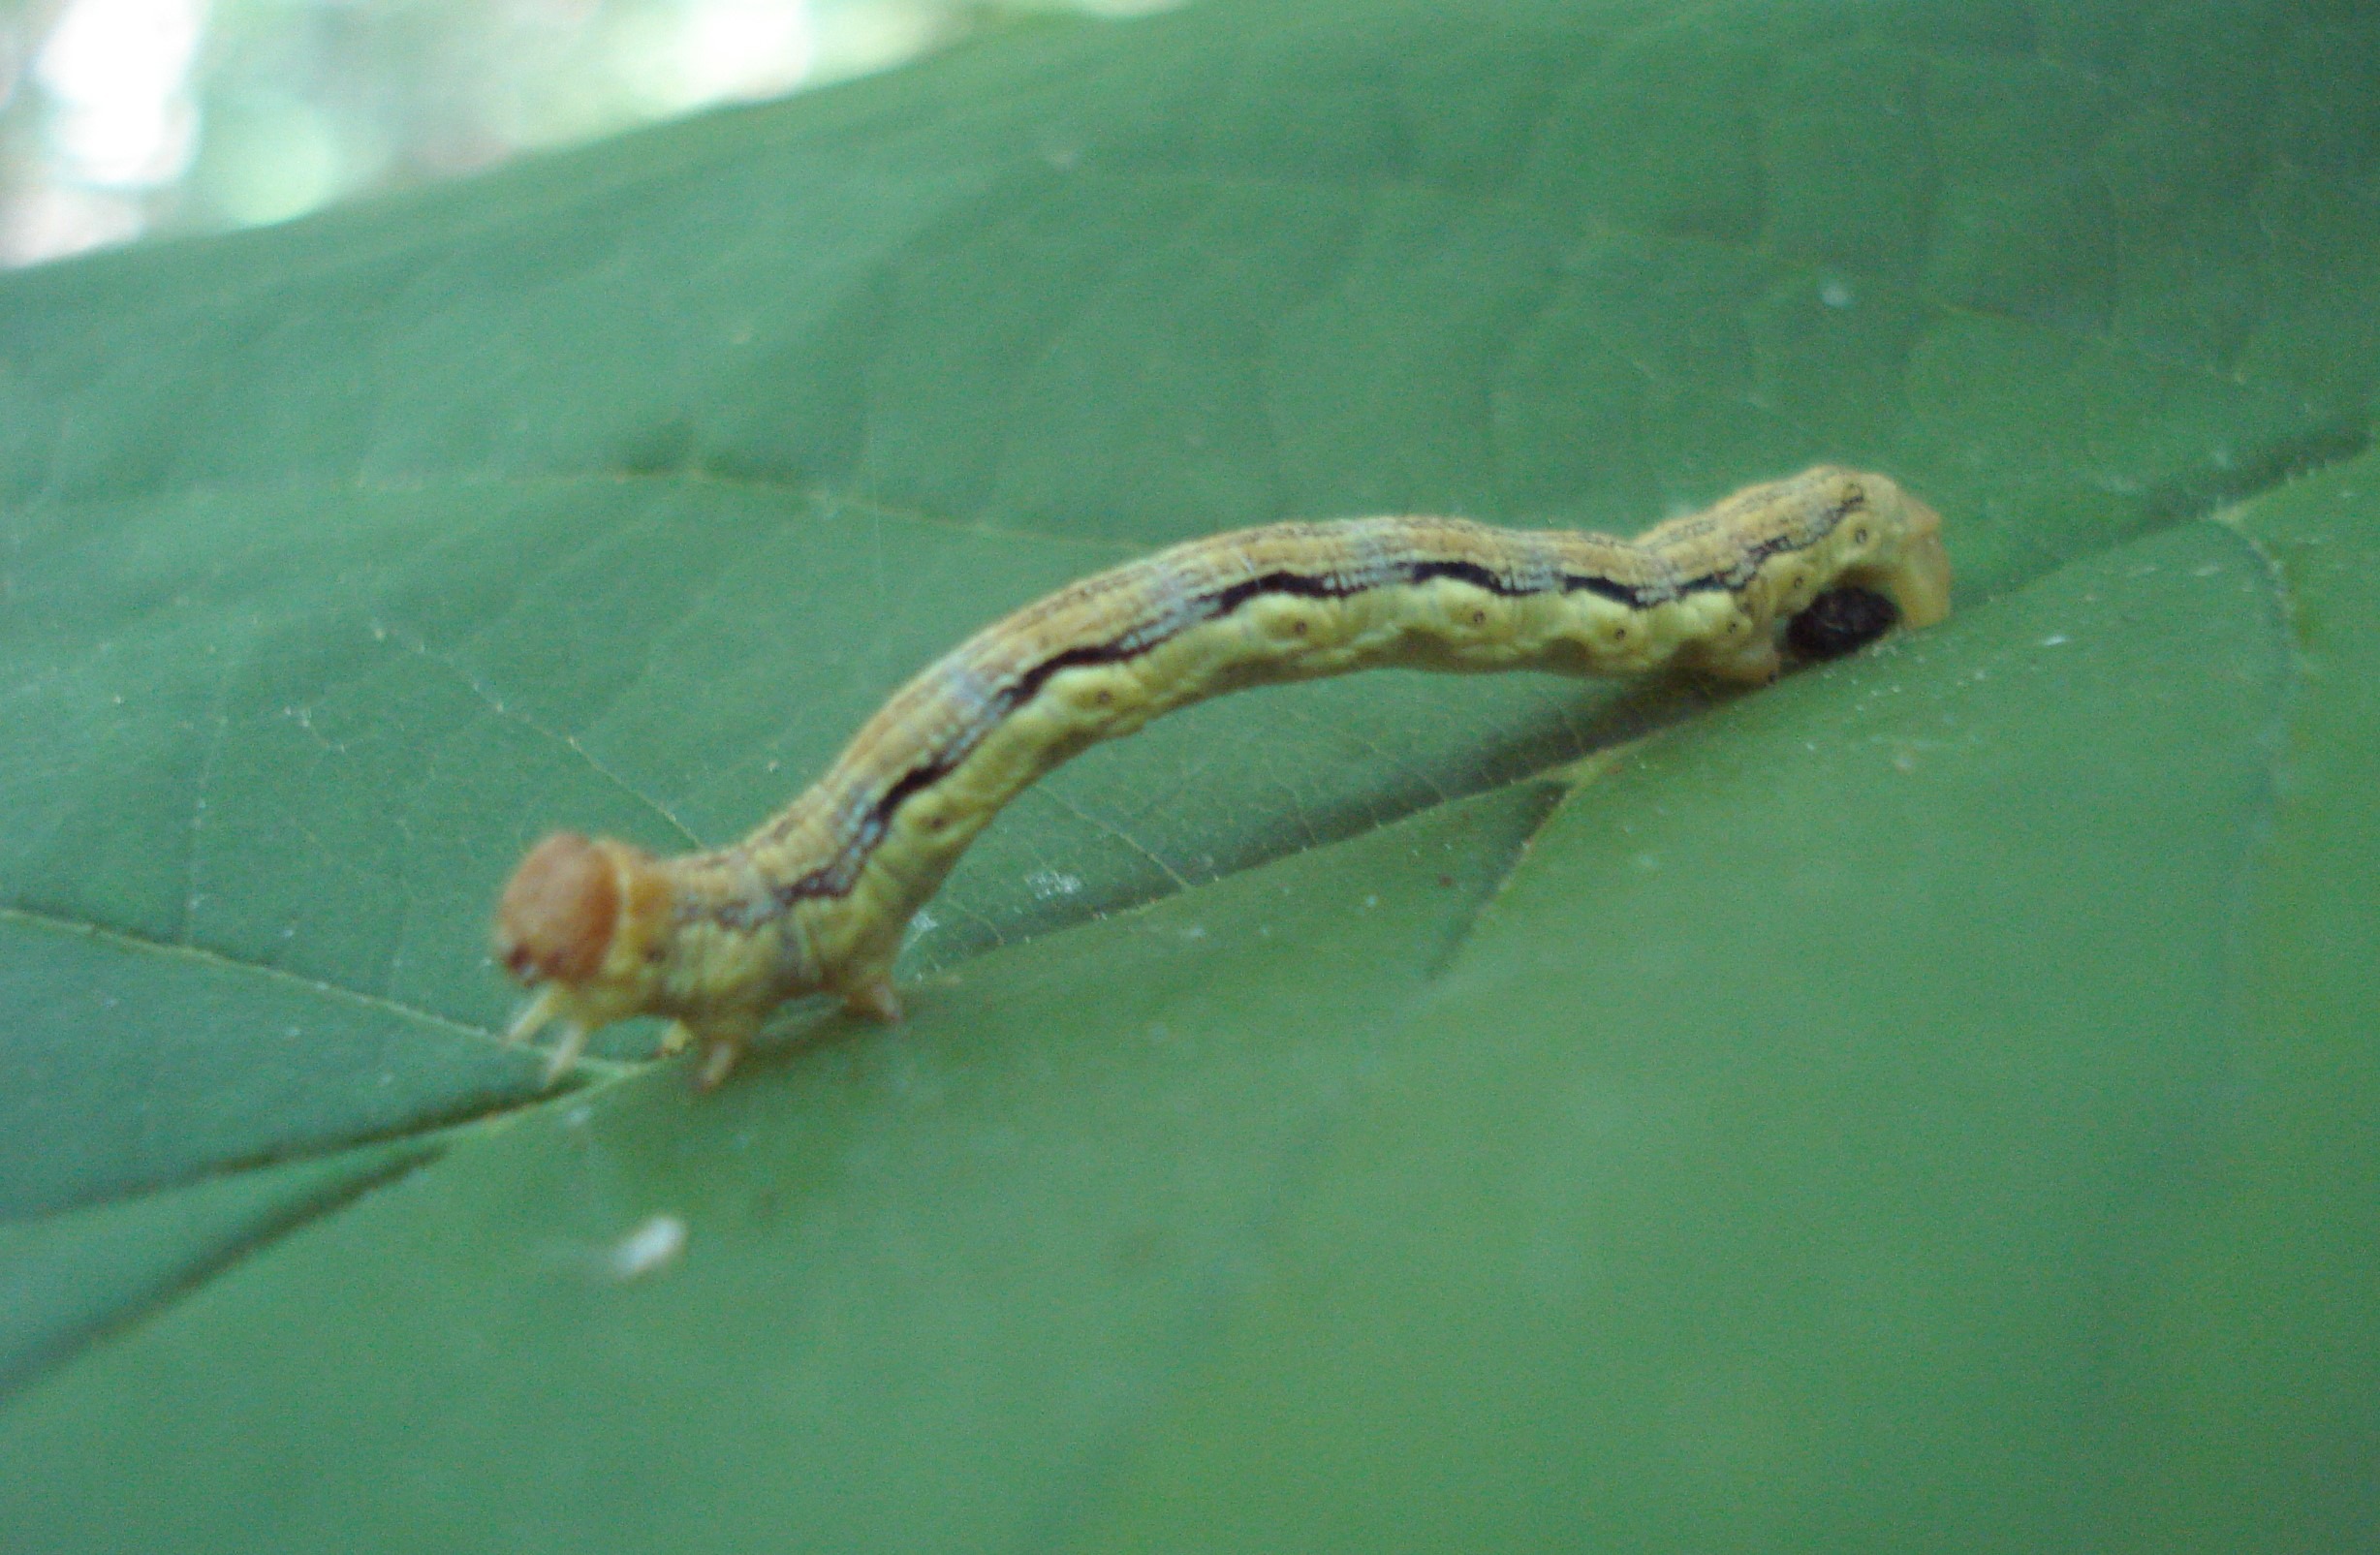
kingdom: Animalia
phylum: Arthropoda
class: Insecta
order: Lepidoptera
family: Geometridae
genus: Erannis
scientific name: Erannis defoliaria
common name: Stor frostmåler
